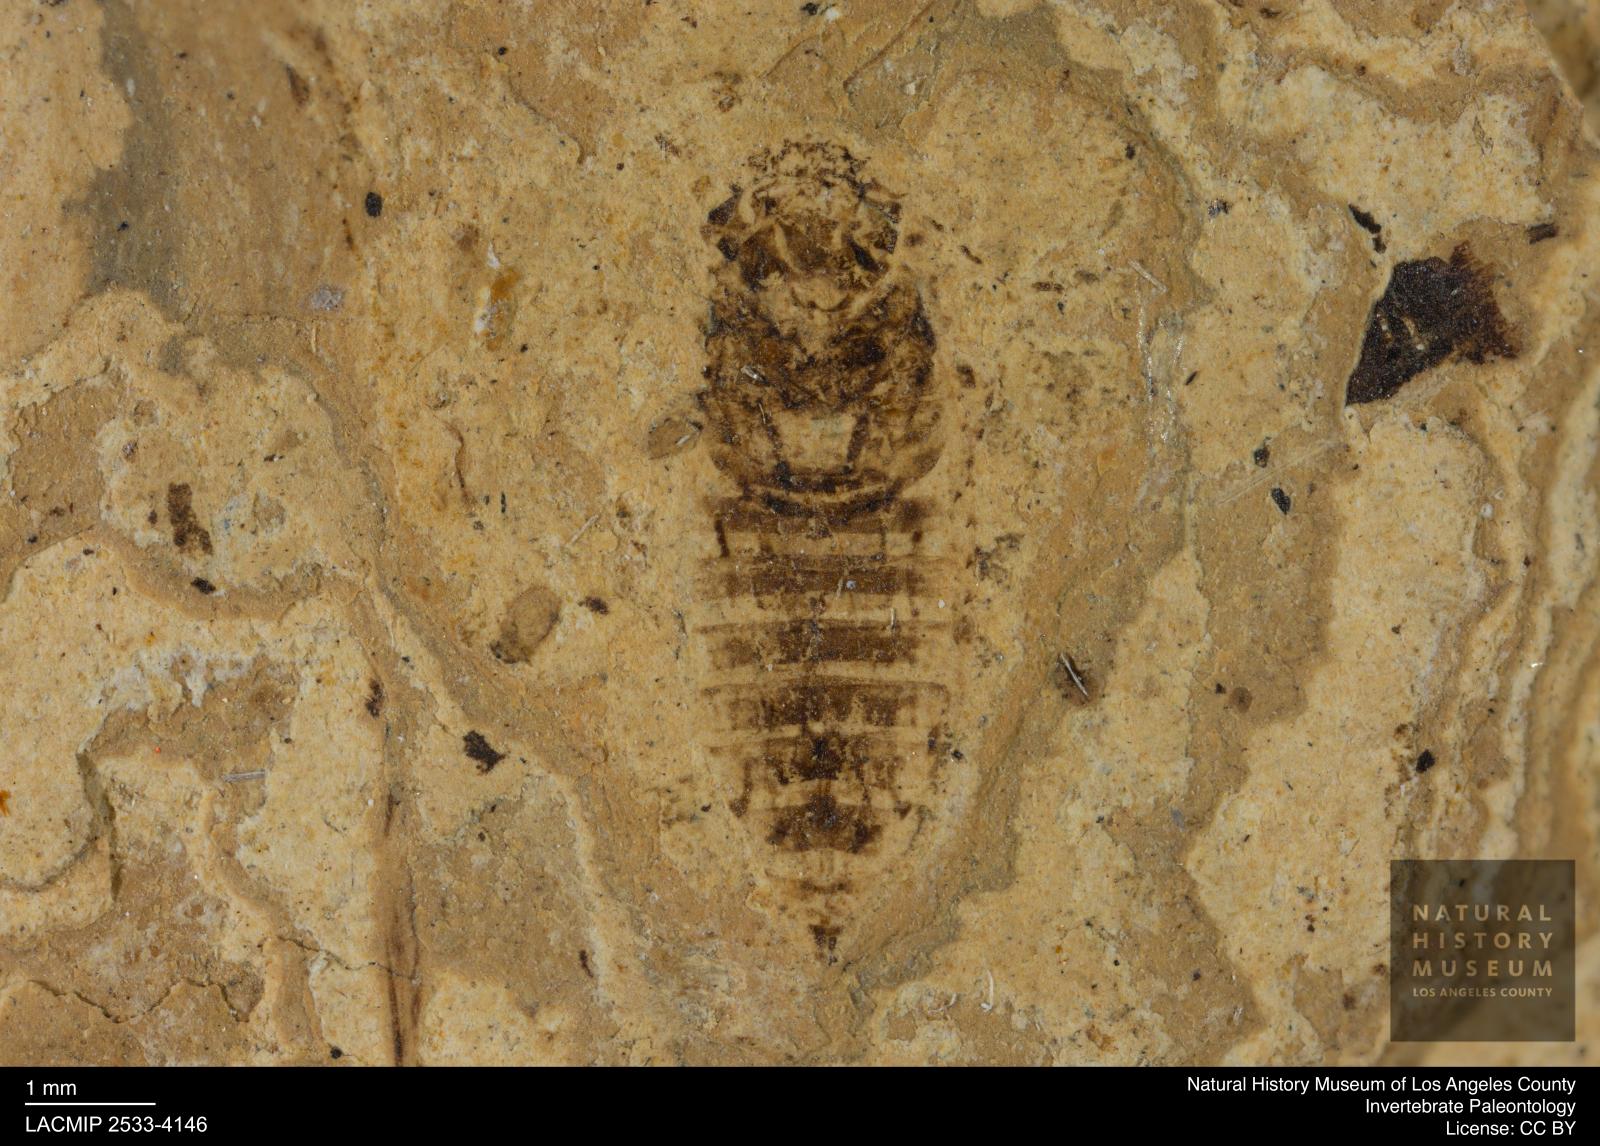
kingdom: Animalia
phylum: Arthropoda
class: Insecta
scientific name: Insecta
